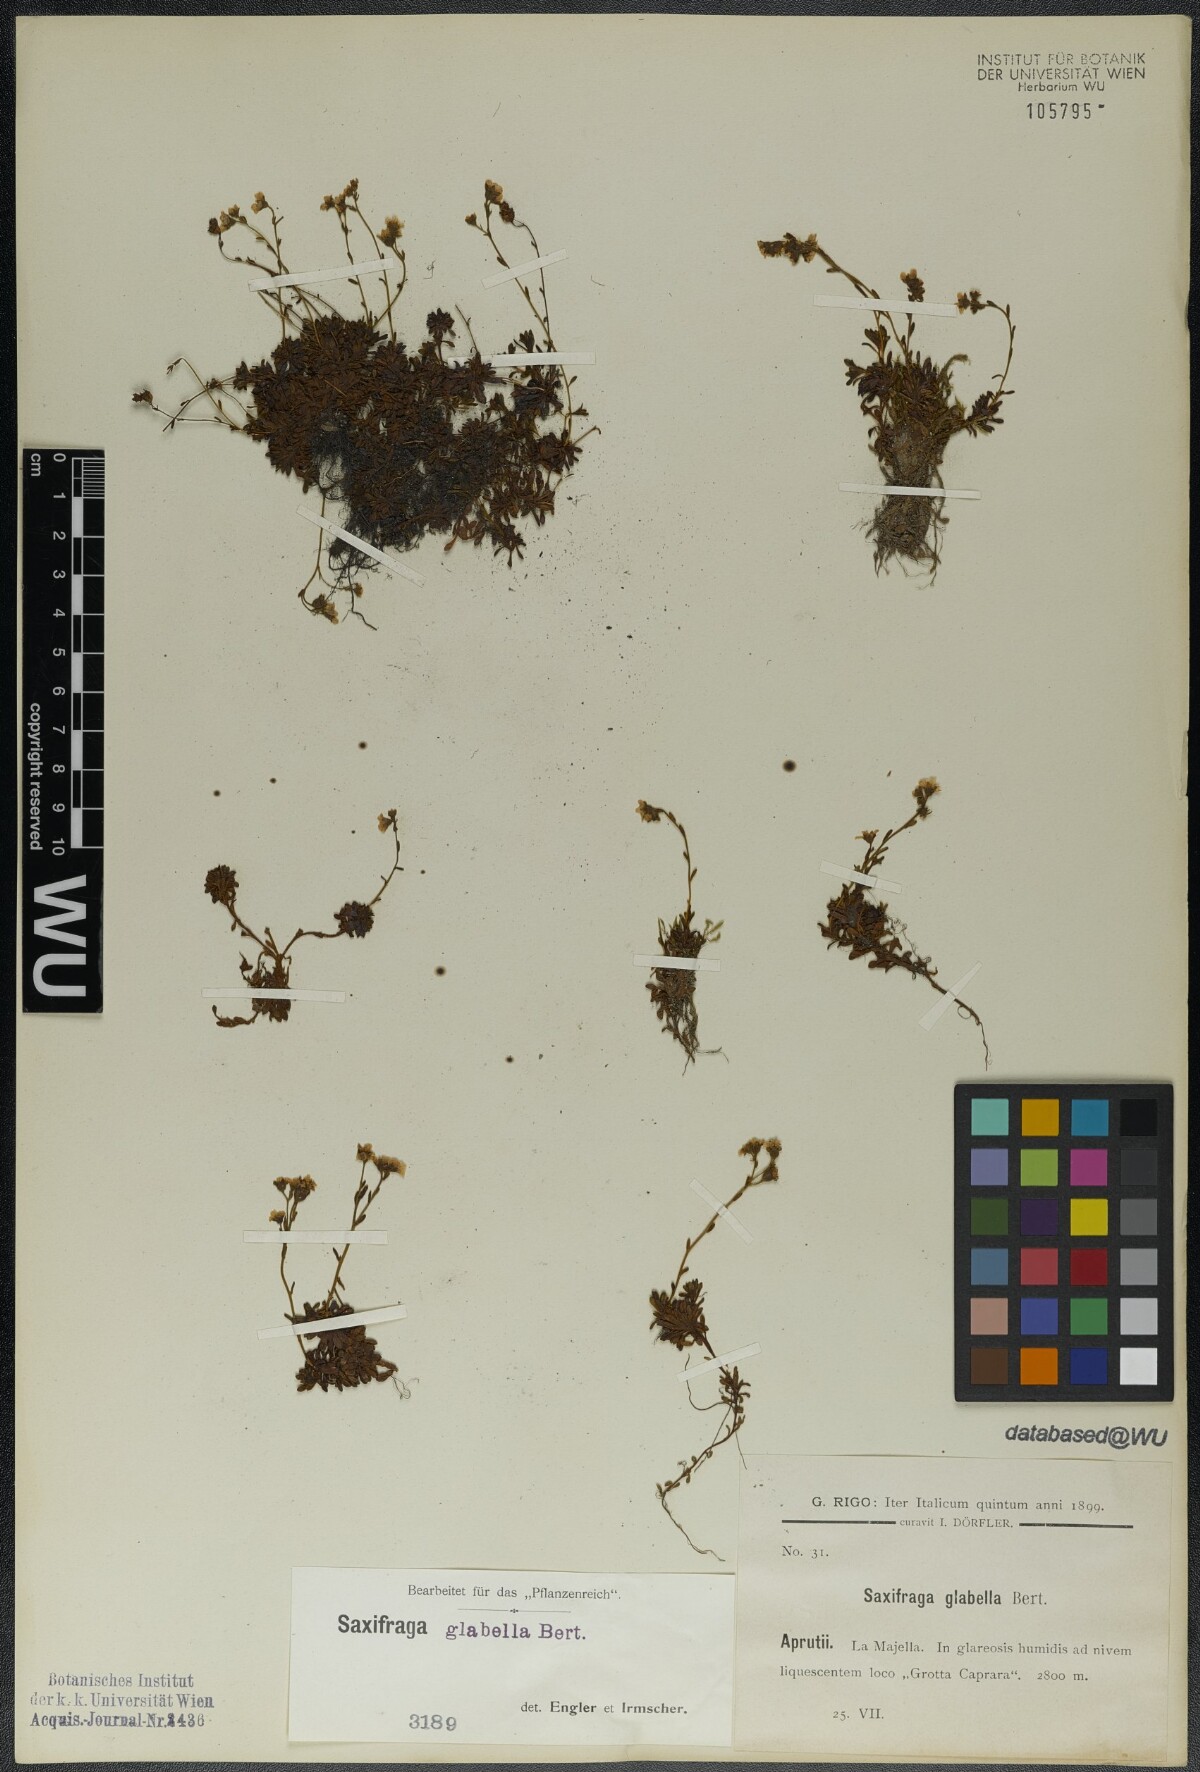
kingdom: Plantae
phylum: Tracheophyta
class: Magnoliopsida
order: Saxifragales
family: Saxifragaceae
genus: Saxifraga
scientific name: Saxifraga glabella
